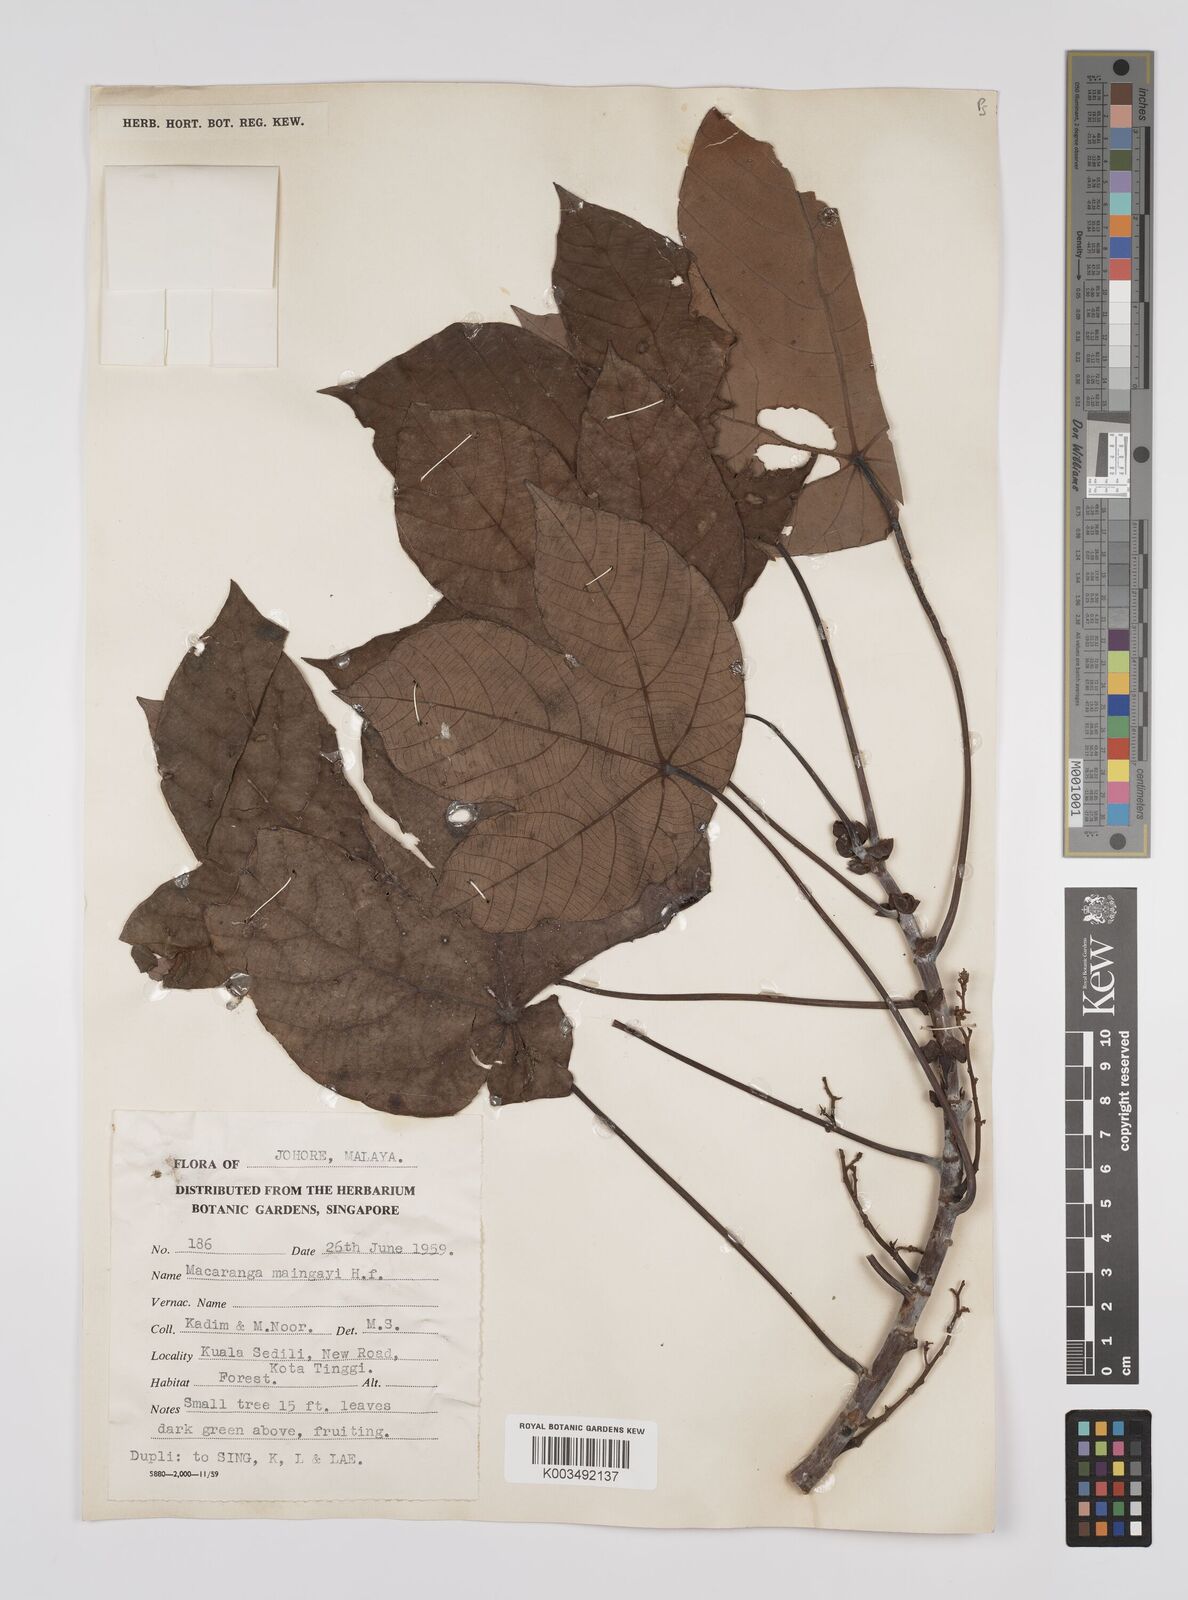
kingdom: Plantae
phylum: Tracheophyta
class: Magnoliopsida
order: Malpighiales
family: Euphorbiaceae
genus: Macaranga
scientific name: Macaranga pruinosa
